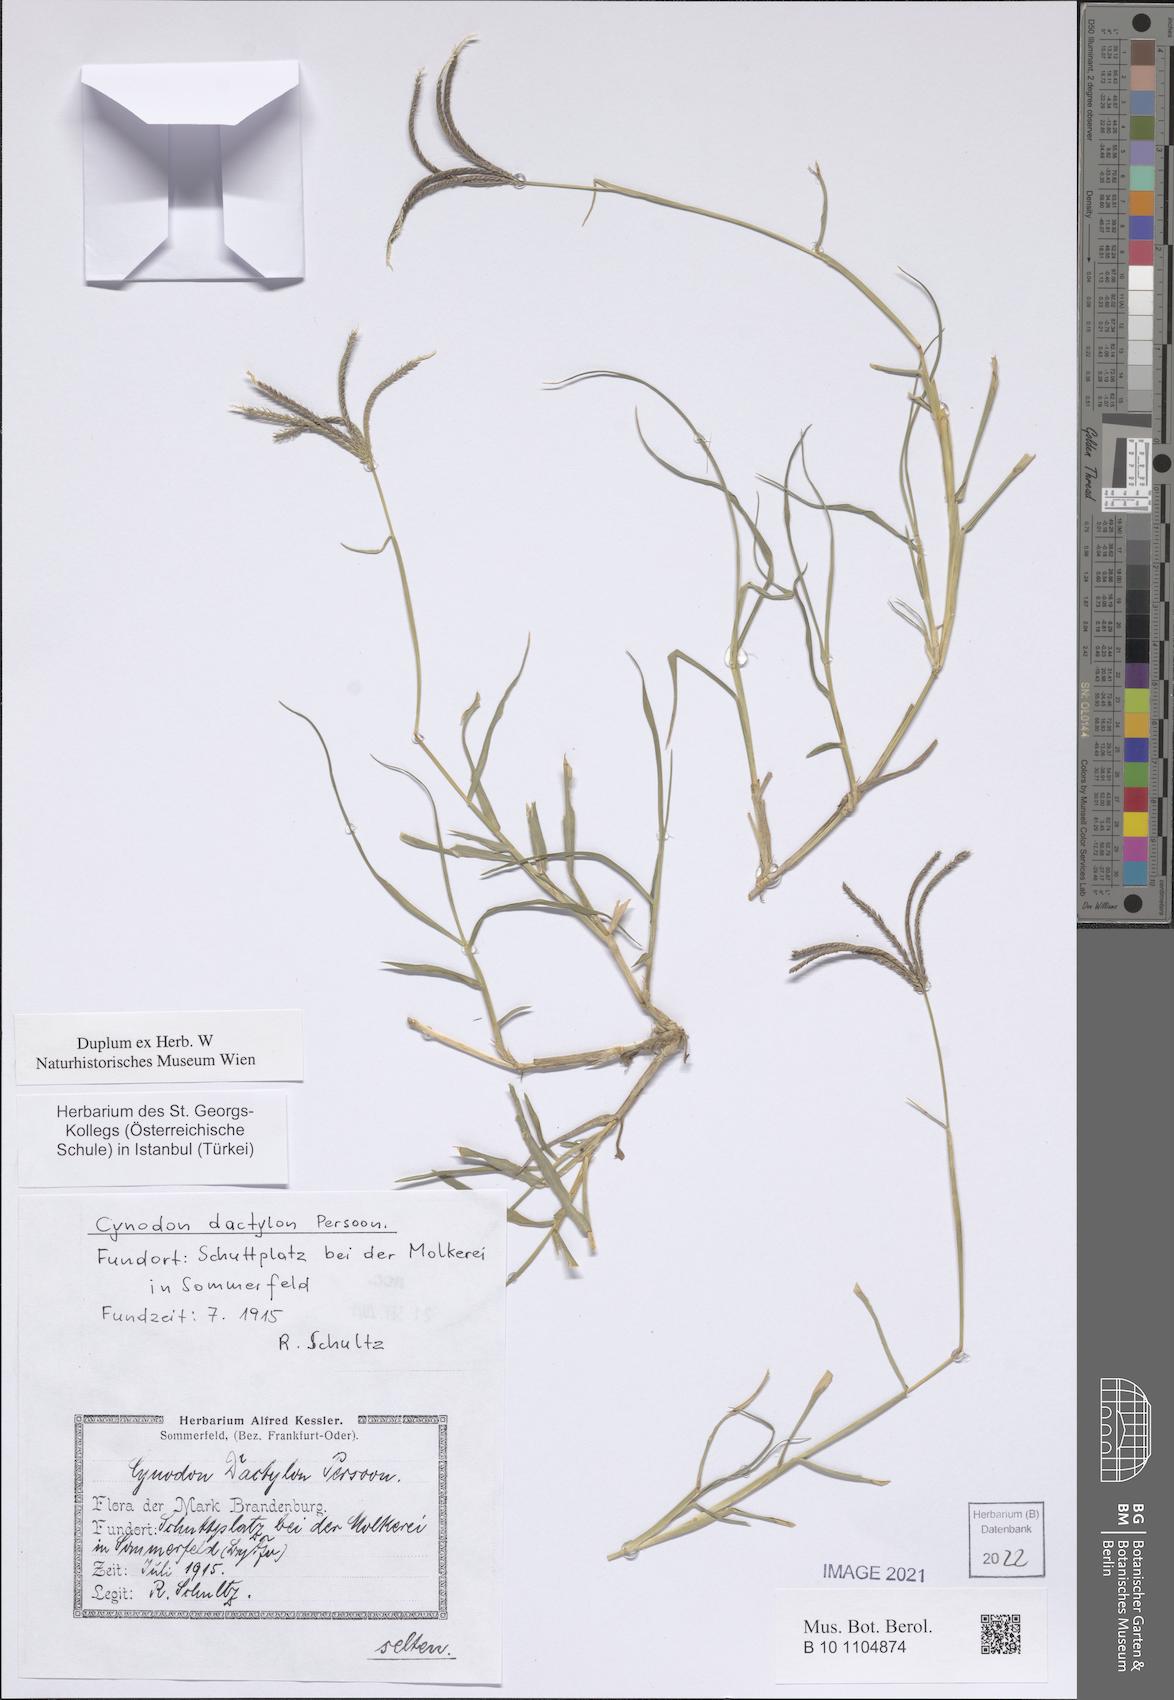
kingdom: Plantae
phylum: Tracheophyta
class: Liliopsida
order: Poales
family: Poaceae
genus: Cynodon
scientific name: Cynodon dactylon
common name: Bermuda grass
